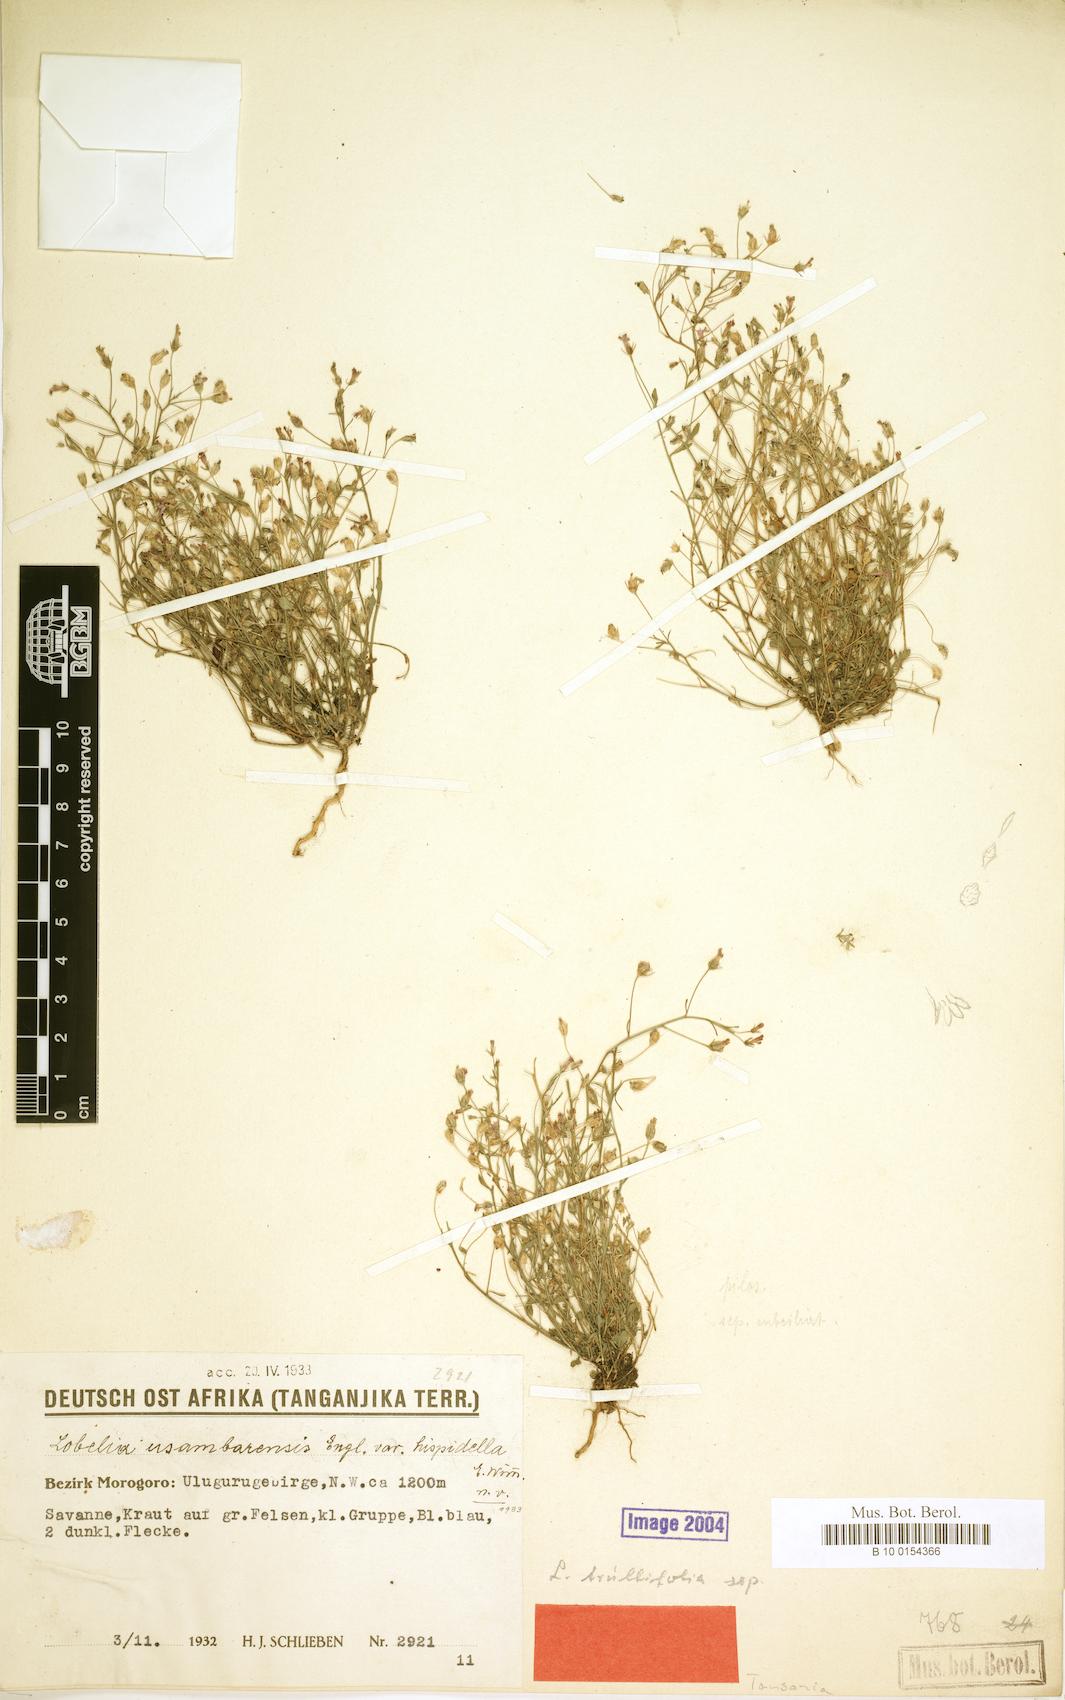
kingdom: Plantae
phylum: Tracheophyta
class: Magnoliopsida
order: Asterales
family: Campanulaceae
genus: Lobelia
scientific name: Lobelia trullifolia
